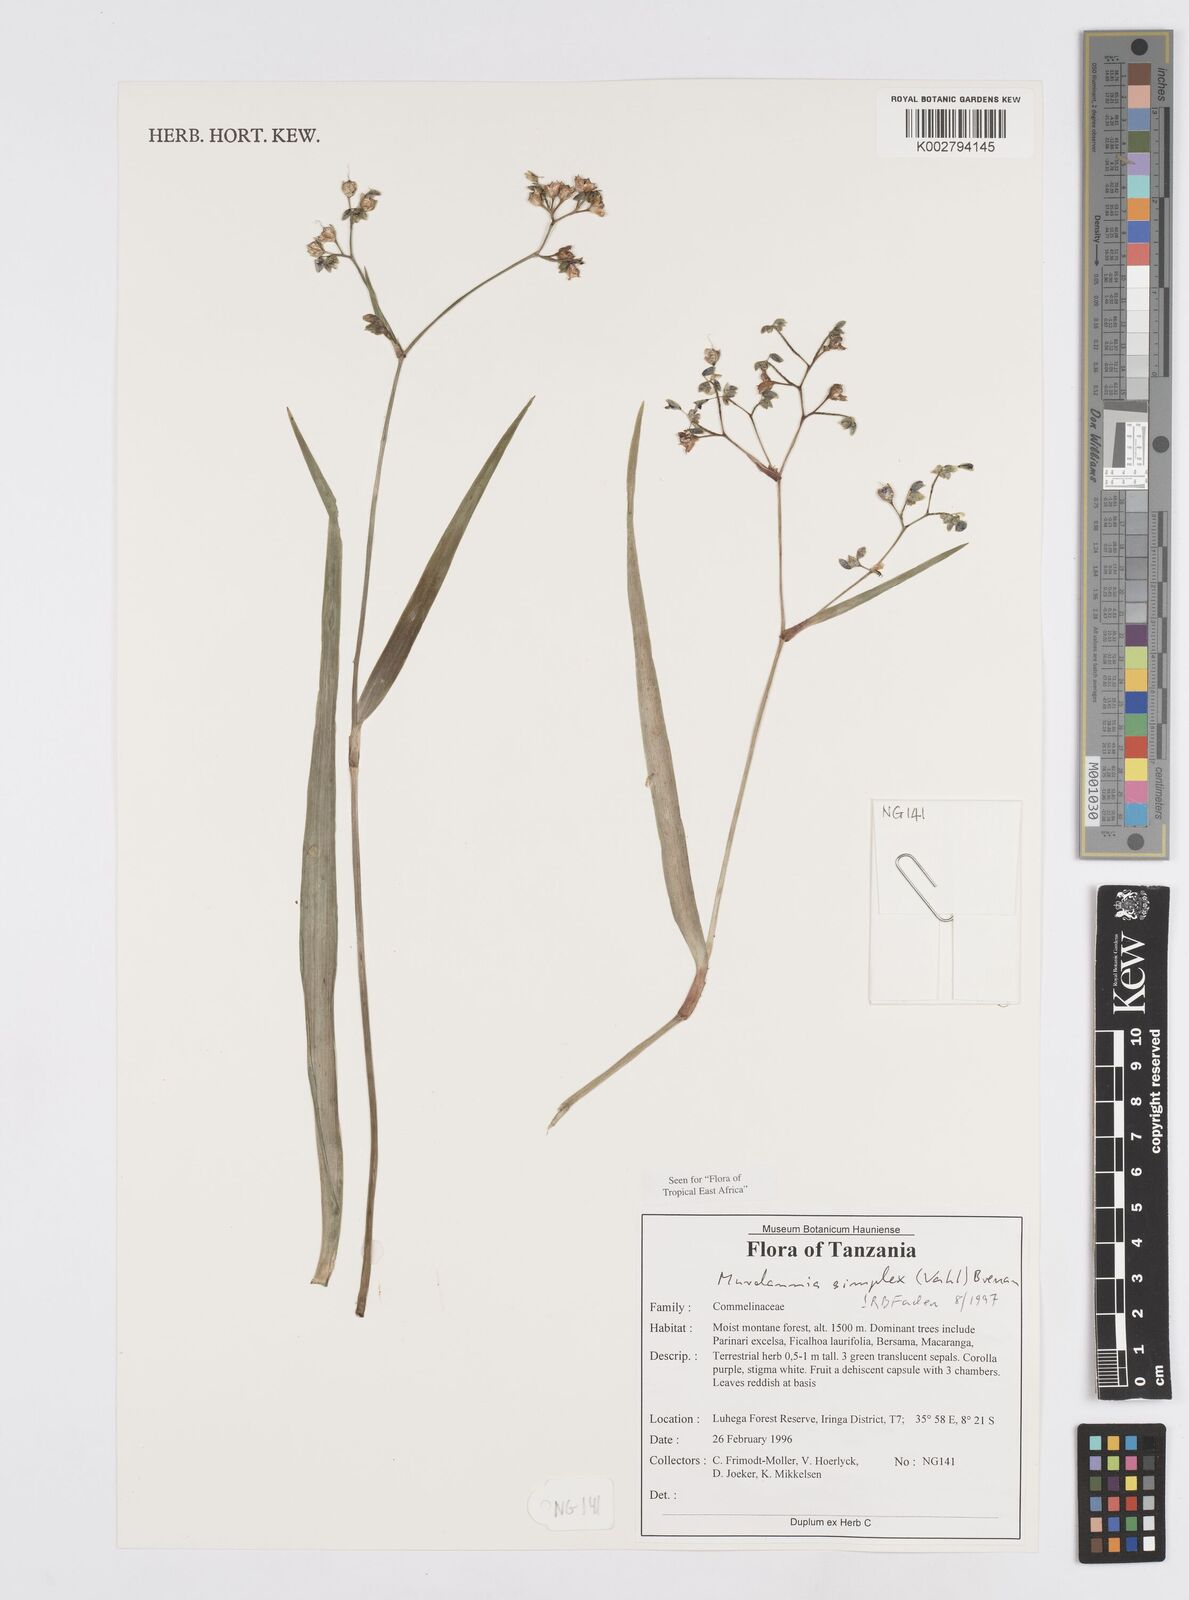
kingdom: Plantae
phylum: Tracheophyta
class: Liliopsida
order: Commelinales
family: Commelinaceae
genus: Murdannia
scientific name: Murdannia simplex
